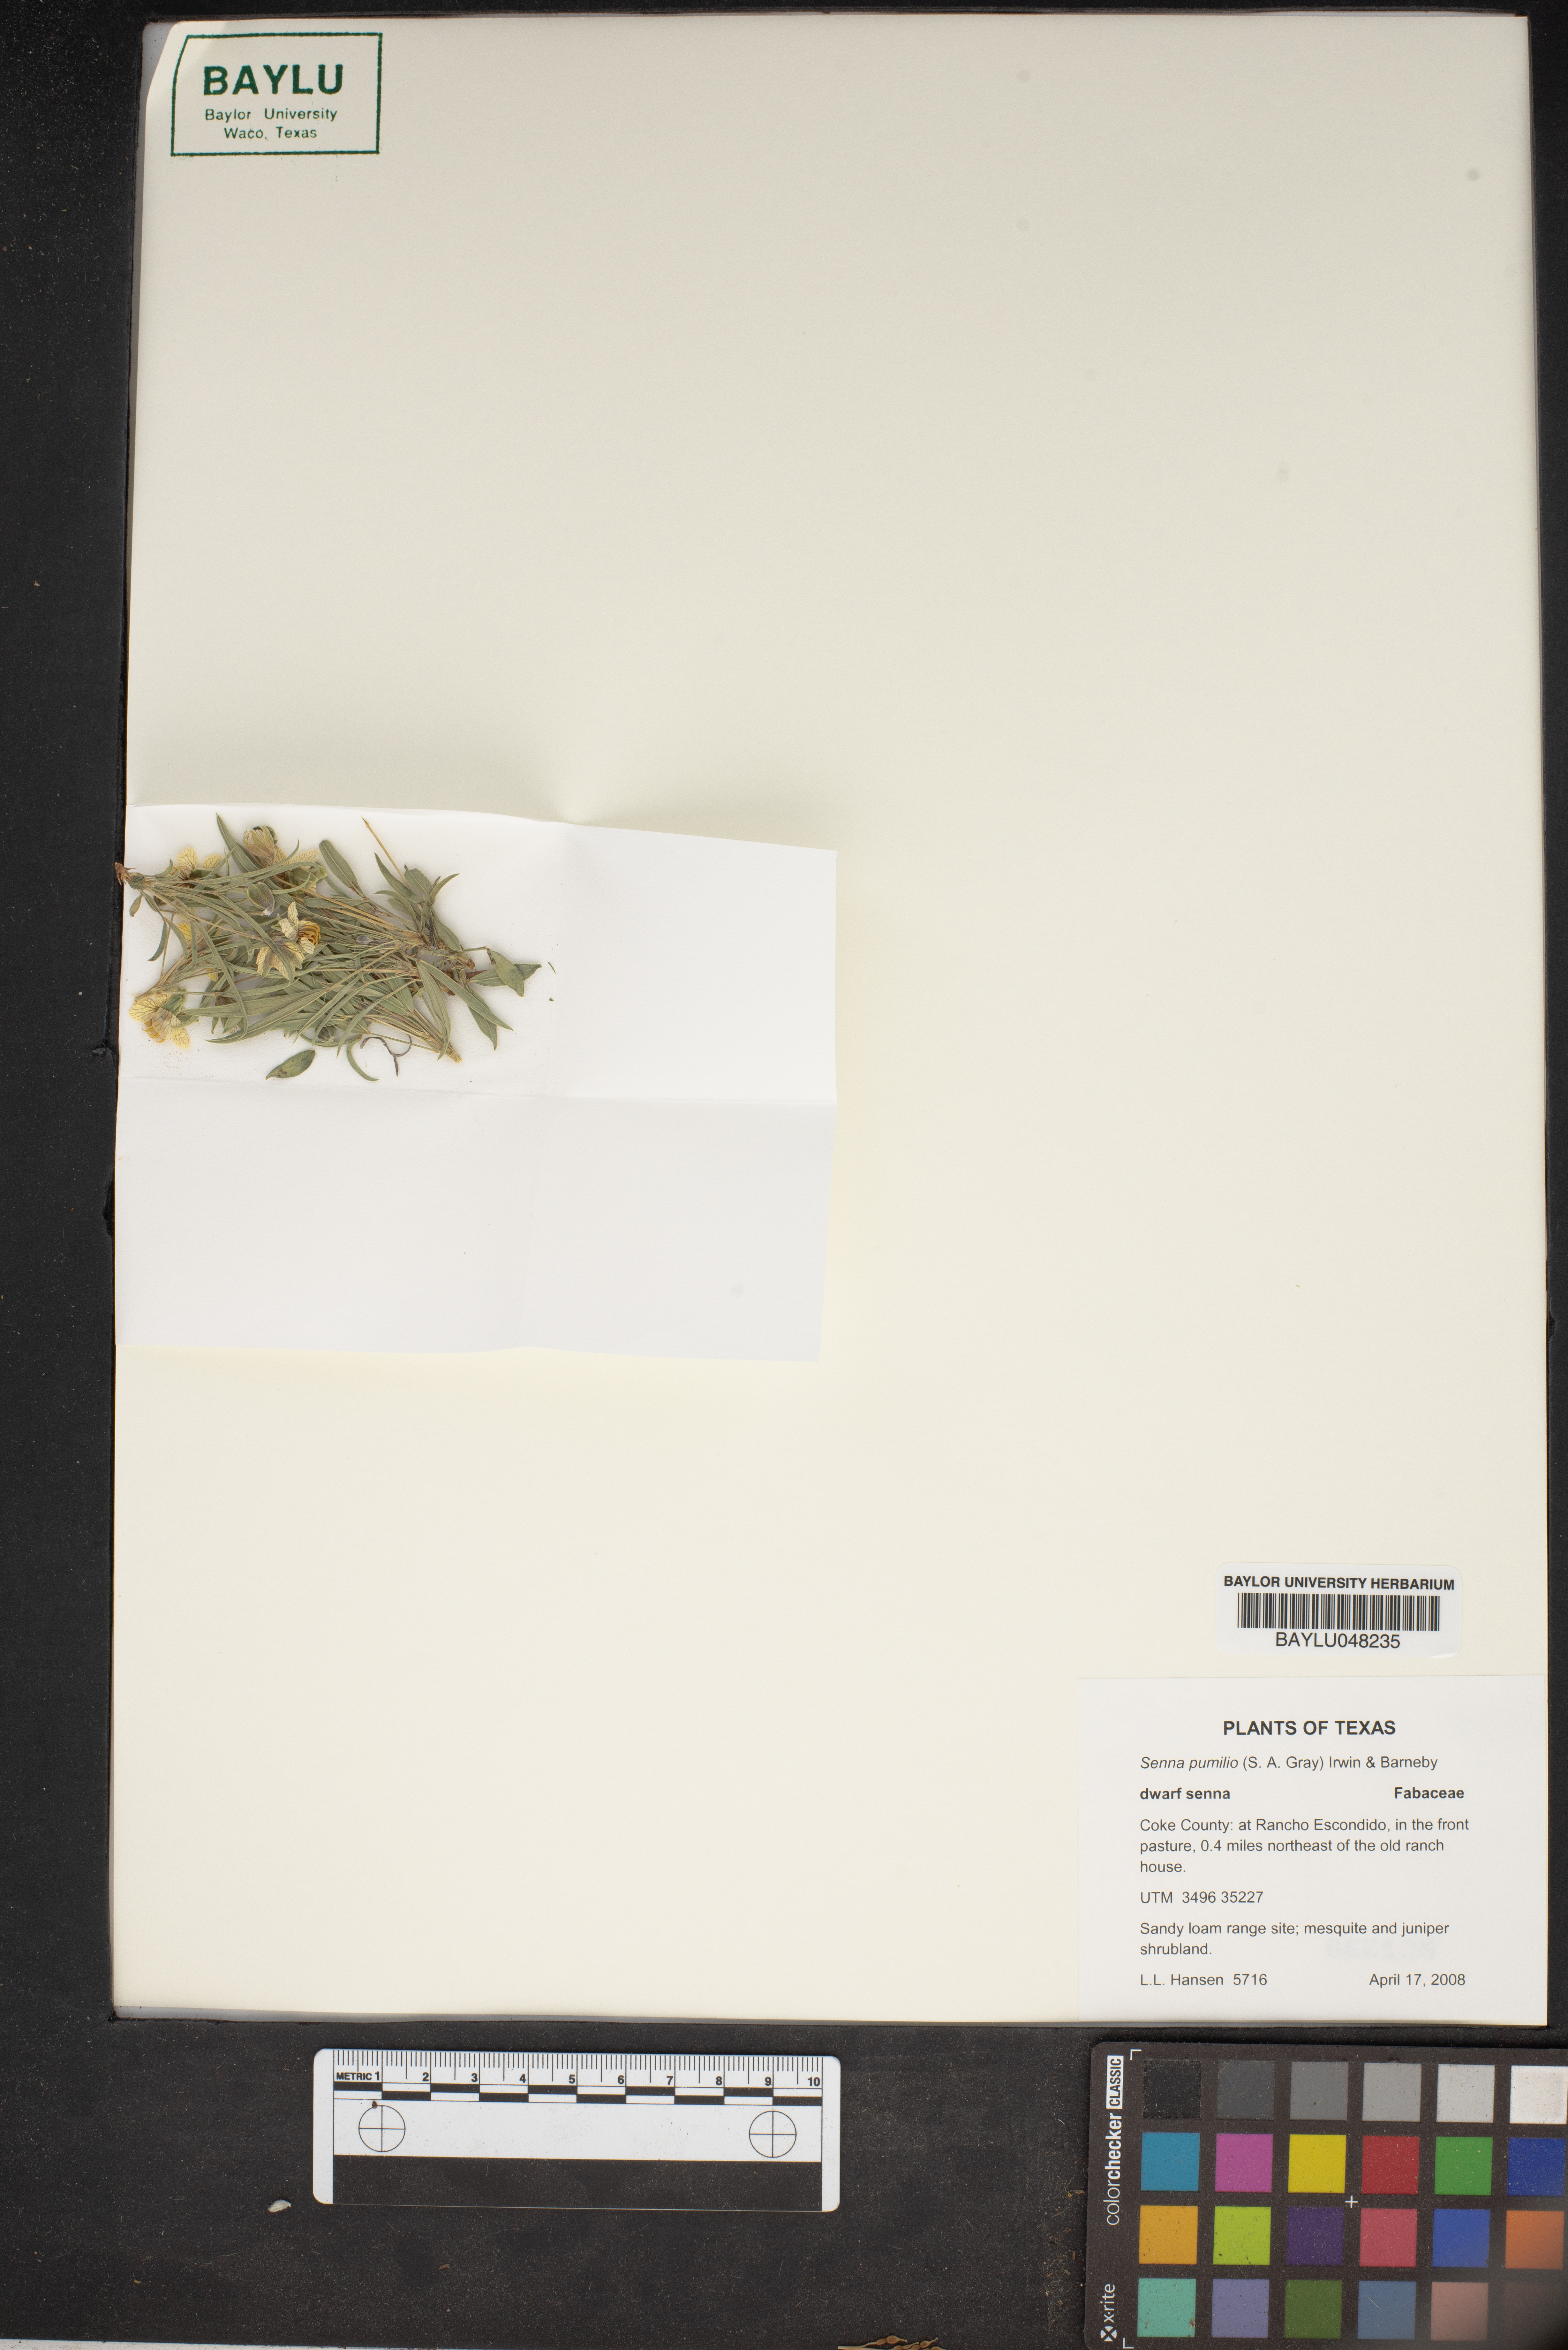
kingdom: Plantae
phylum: Tracheophyta
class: Magnoliopsida
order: Fabales
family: Fabaceae
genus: Senna
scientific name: Senna pumilio
